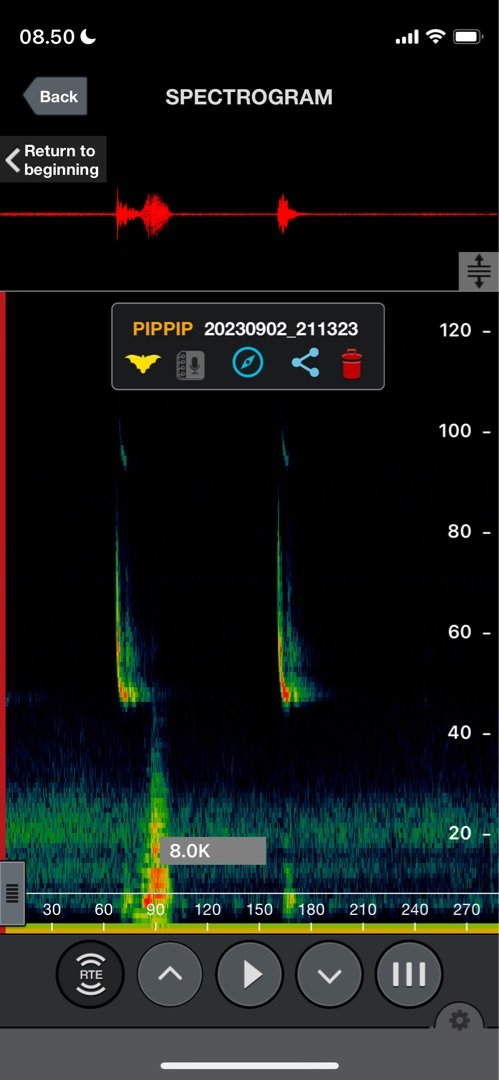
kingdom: Animalia
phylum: Chordata
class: Mammalia
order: Chiroptera
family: Vespertilionidae
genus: Pipistrellus
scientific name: Pipistrellus pipistrellus
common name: Pipistrelflagermus
